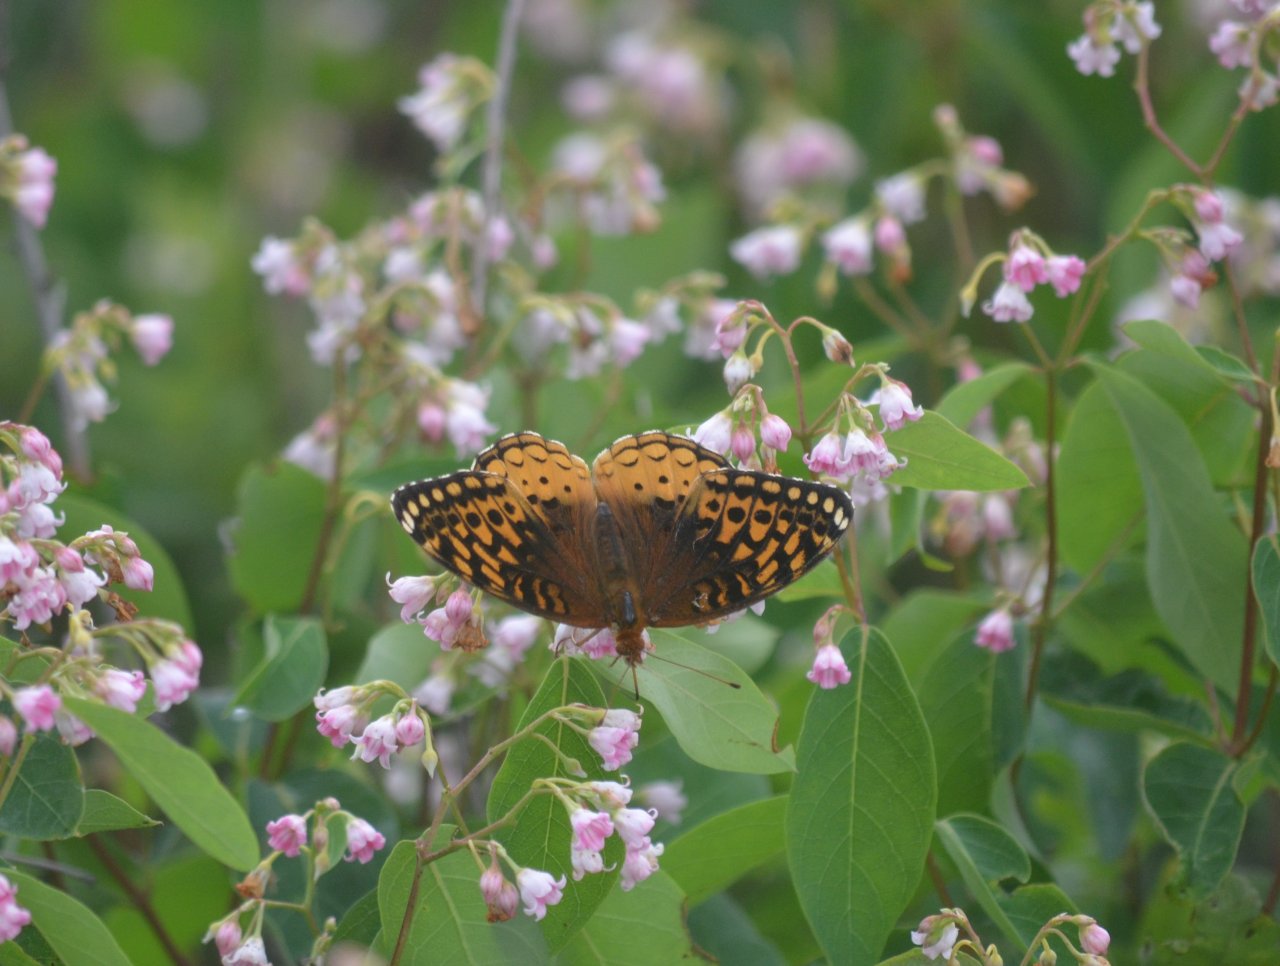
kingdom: Animalia
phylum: Arthropoda
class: Insecta
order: Lepidoptera
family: Nymphalidae
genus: Speyeria
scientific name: Speyeria cybele
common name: Great Spangled Fritillary
